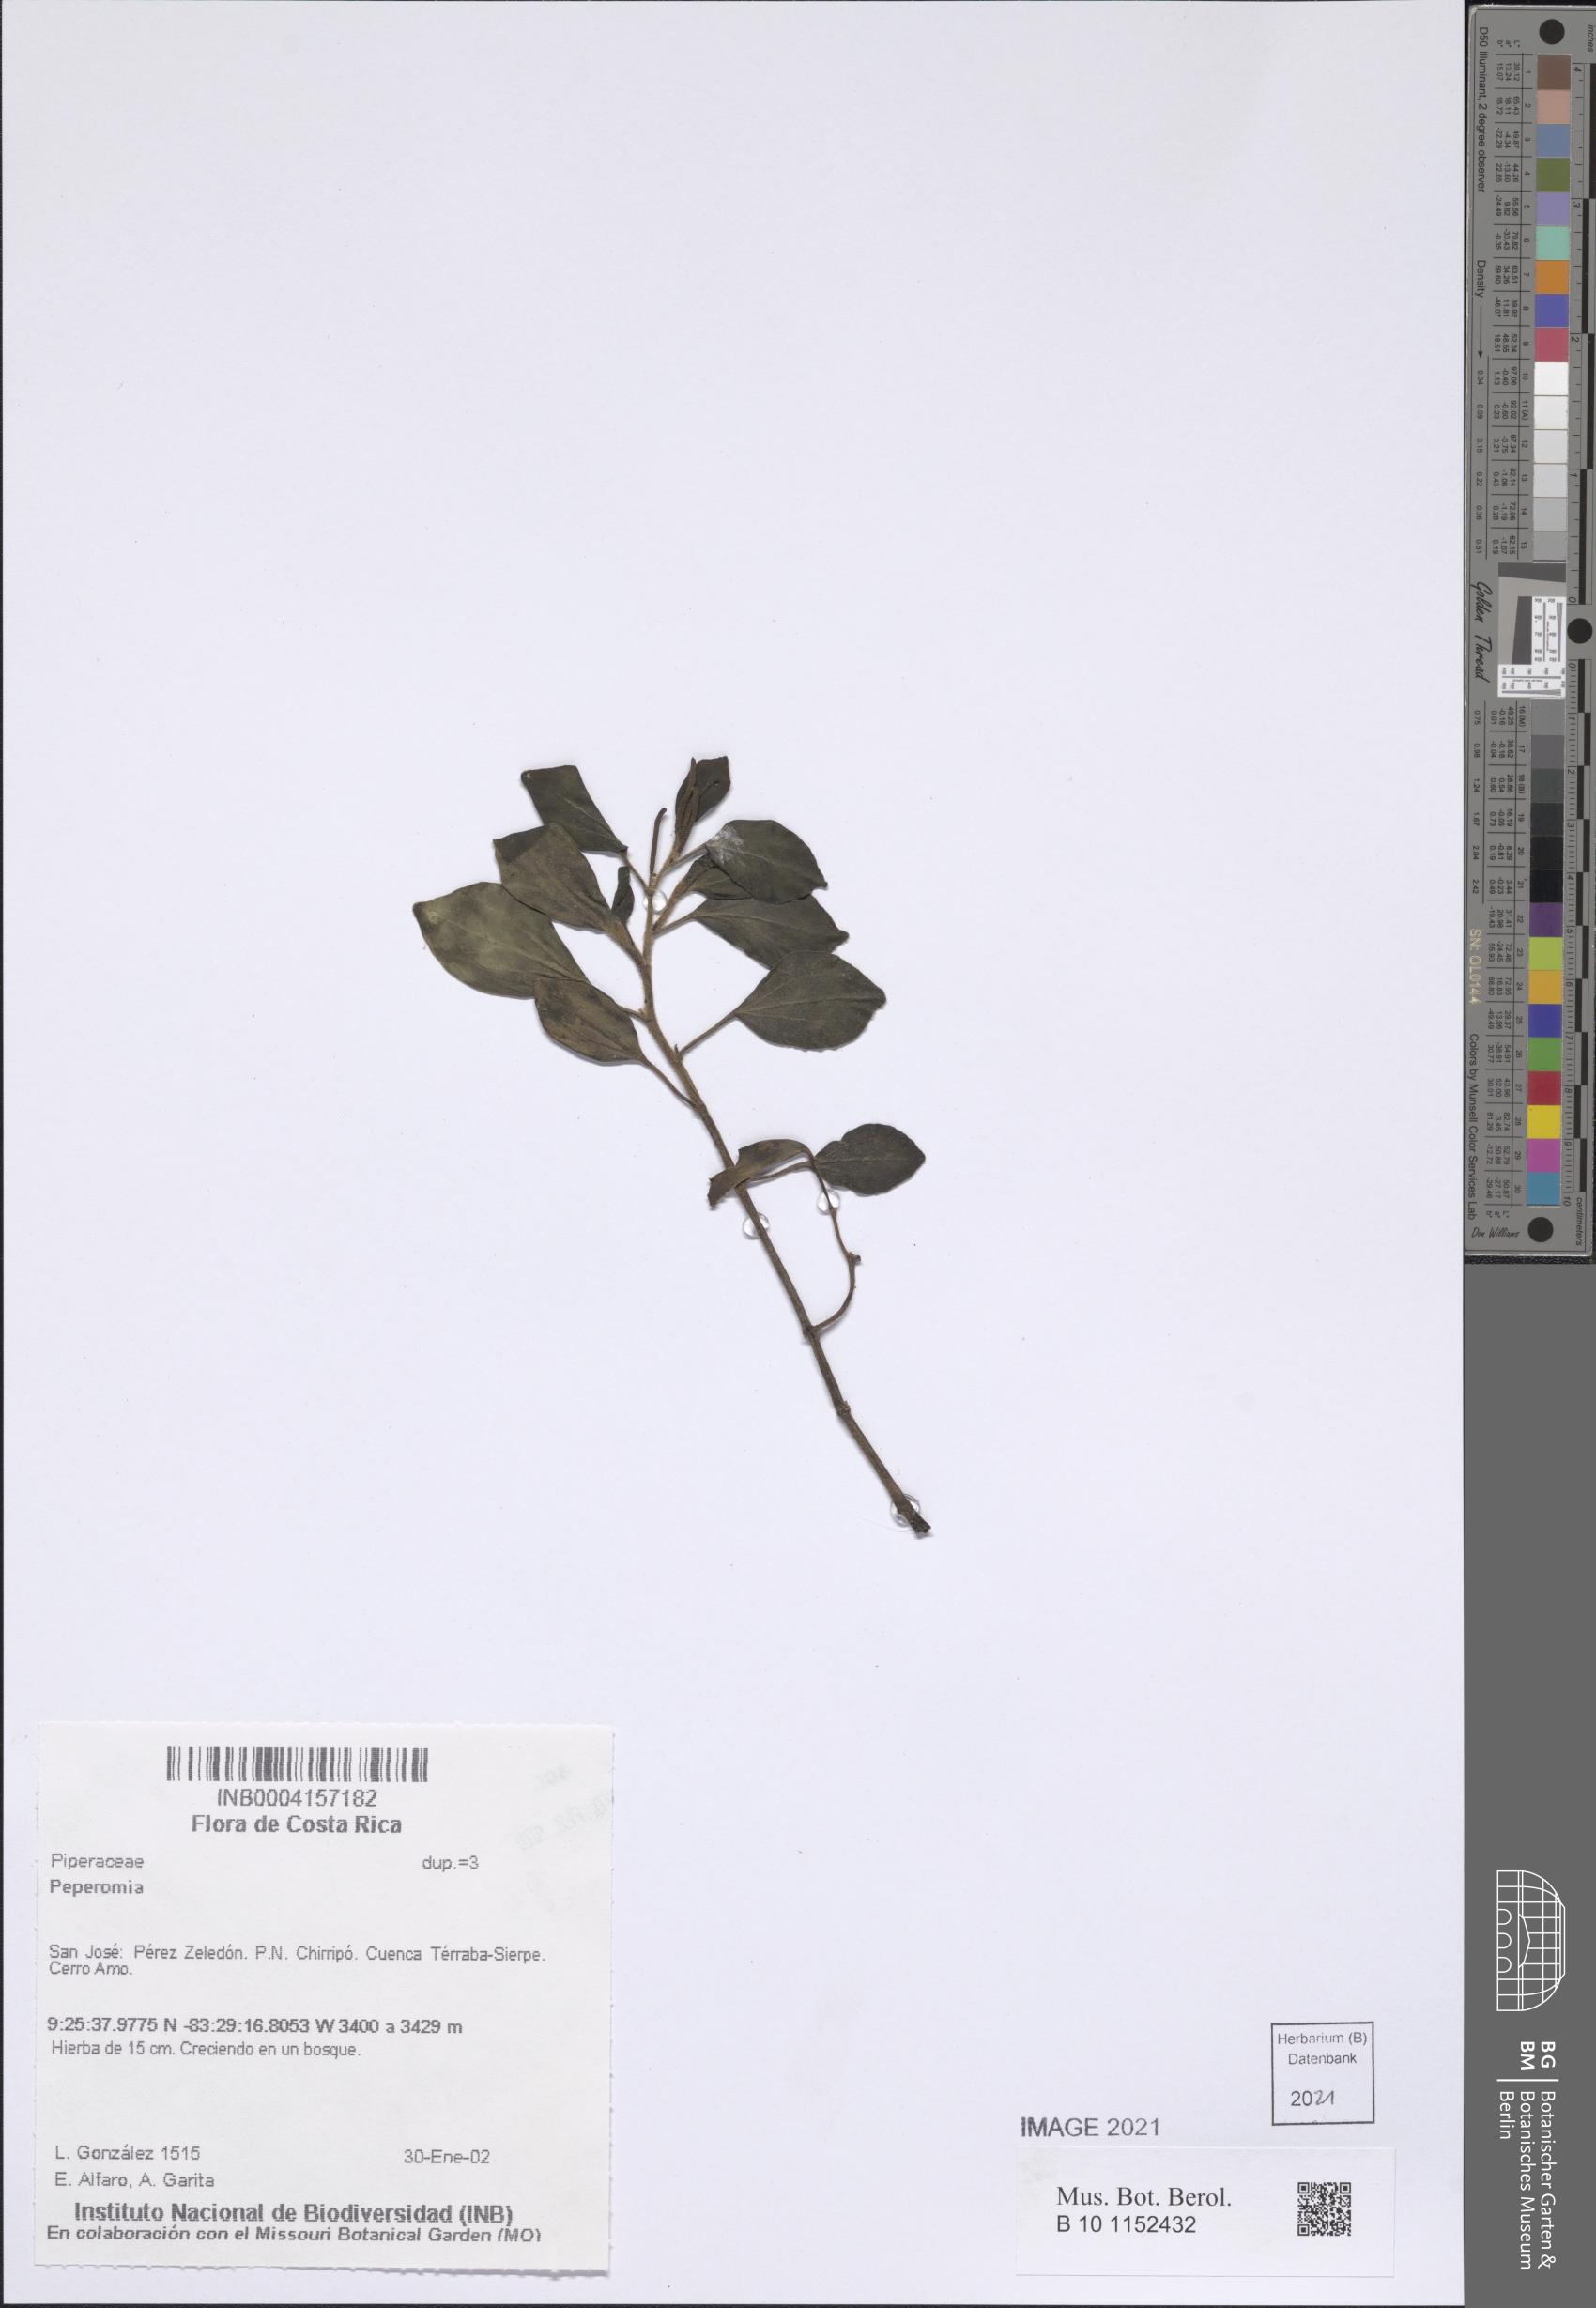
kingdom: Plantae
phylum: Tracheophyta
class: Magnoliopsida
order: Piperales
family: Piperaceae
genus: Peperomia
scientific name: Peperomia
